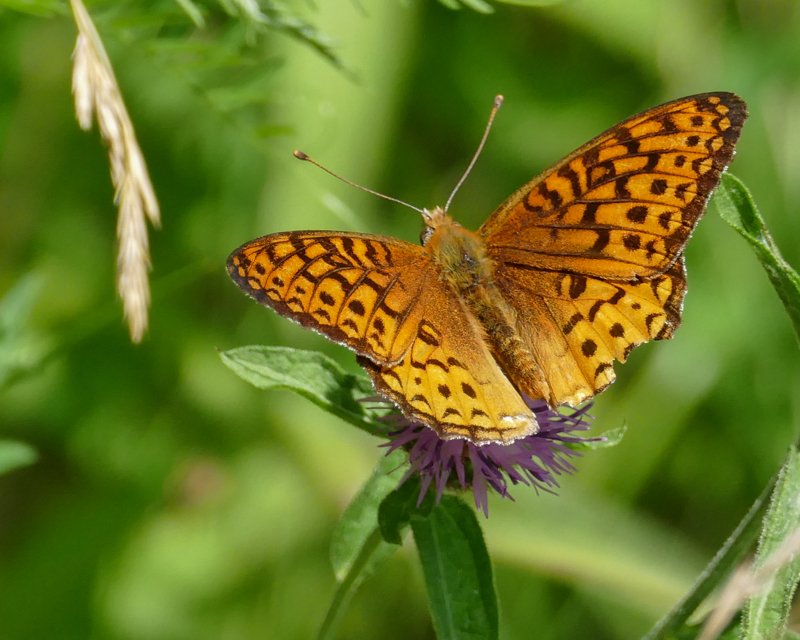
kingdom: Animalia
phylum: Arthropoda
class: Insecta
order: Lepidoptera
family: Nymphalidae
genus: Speyeria
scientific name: Speyeria atlantis
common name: Atlantis Fritillary
